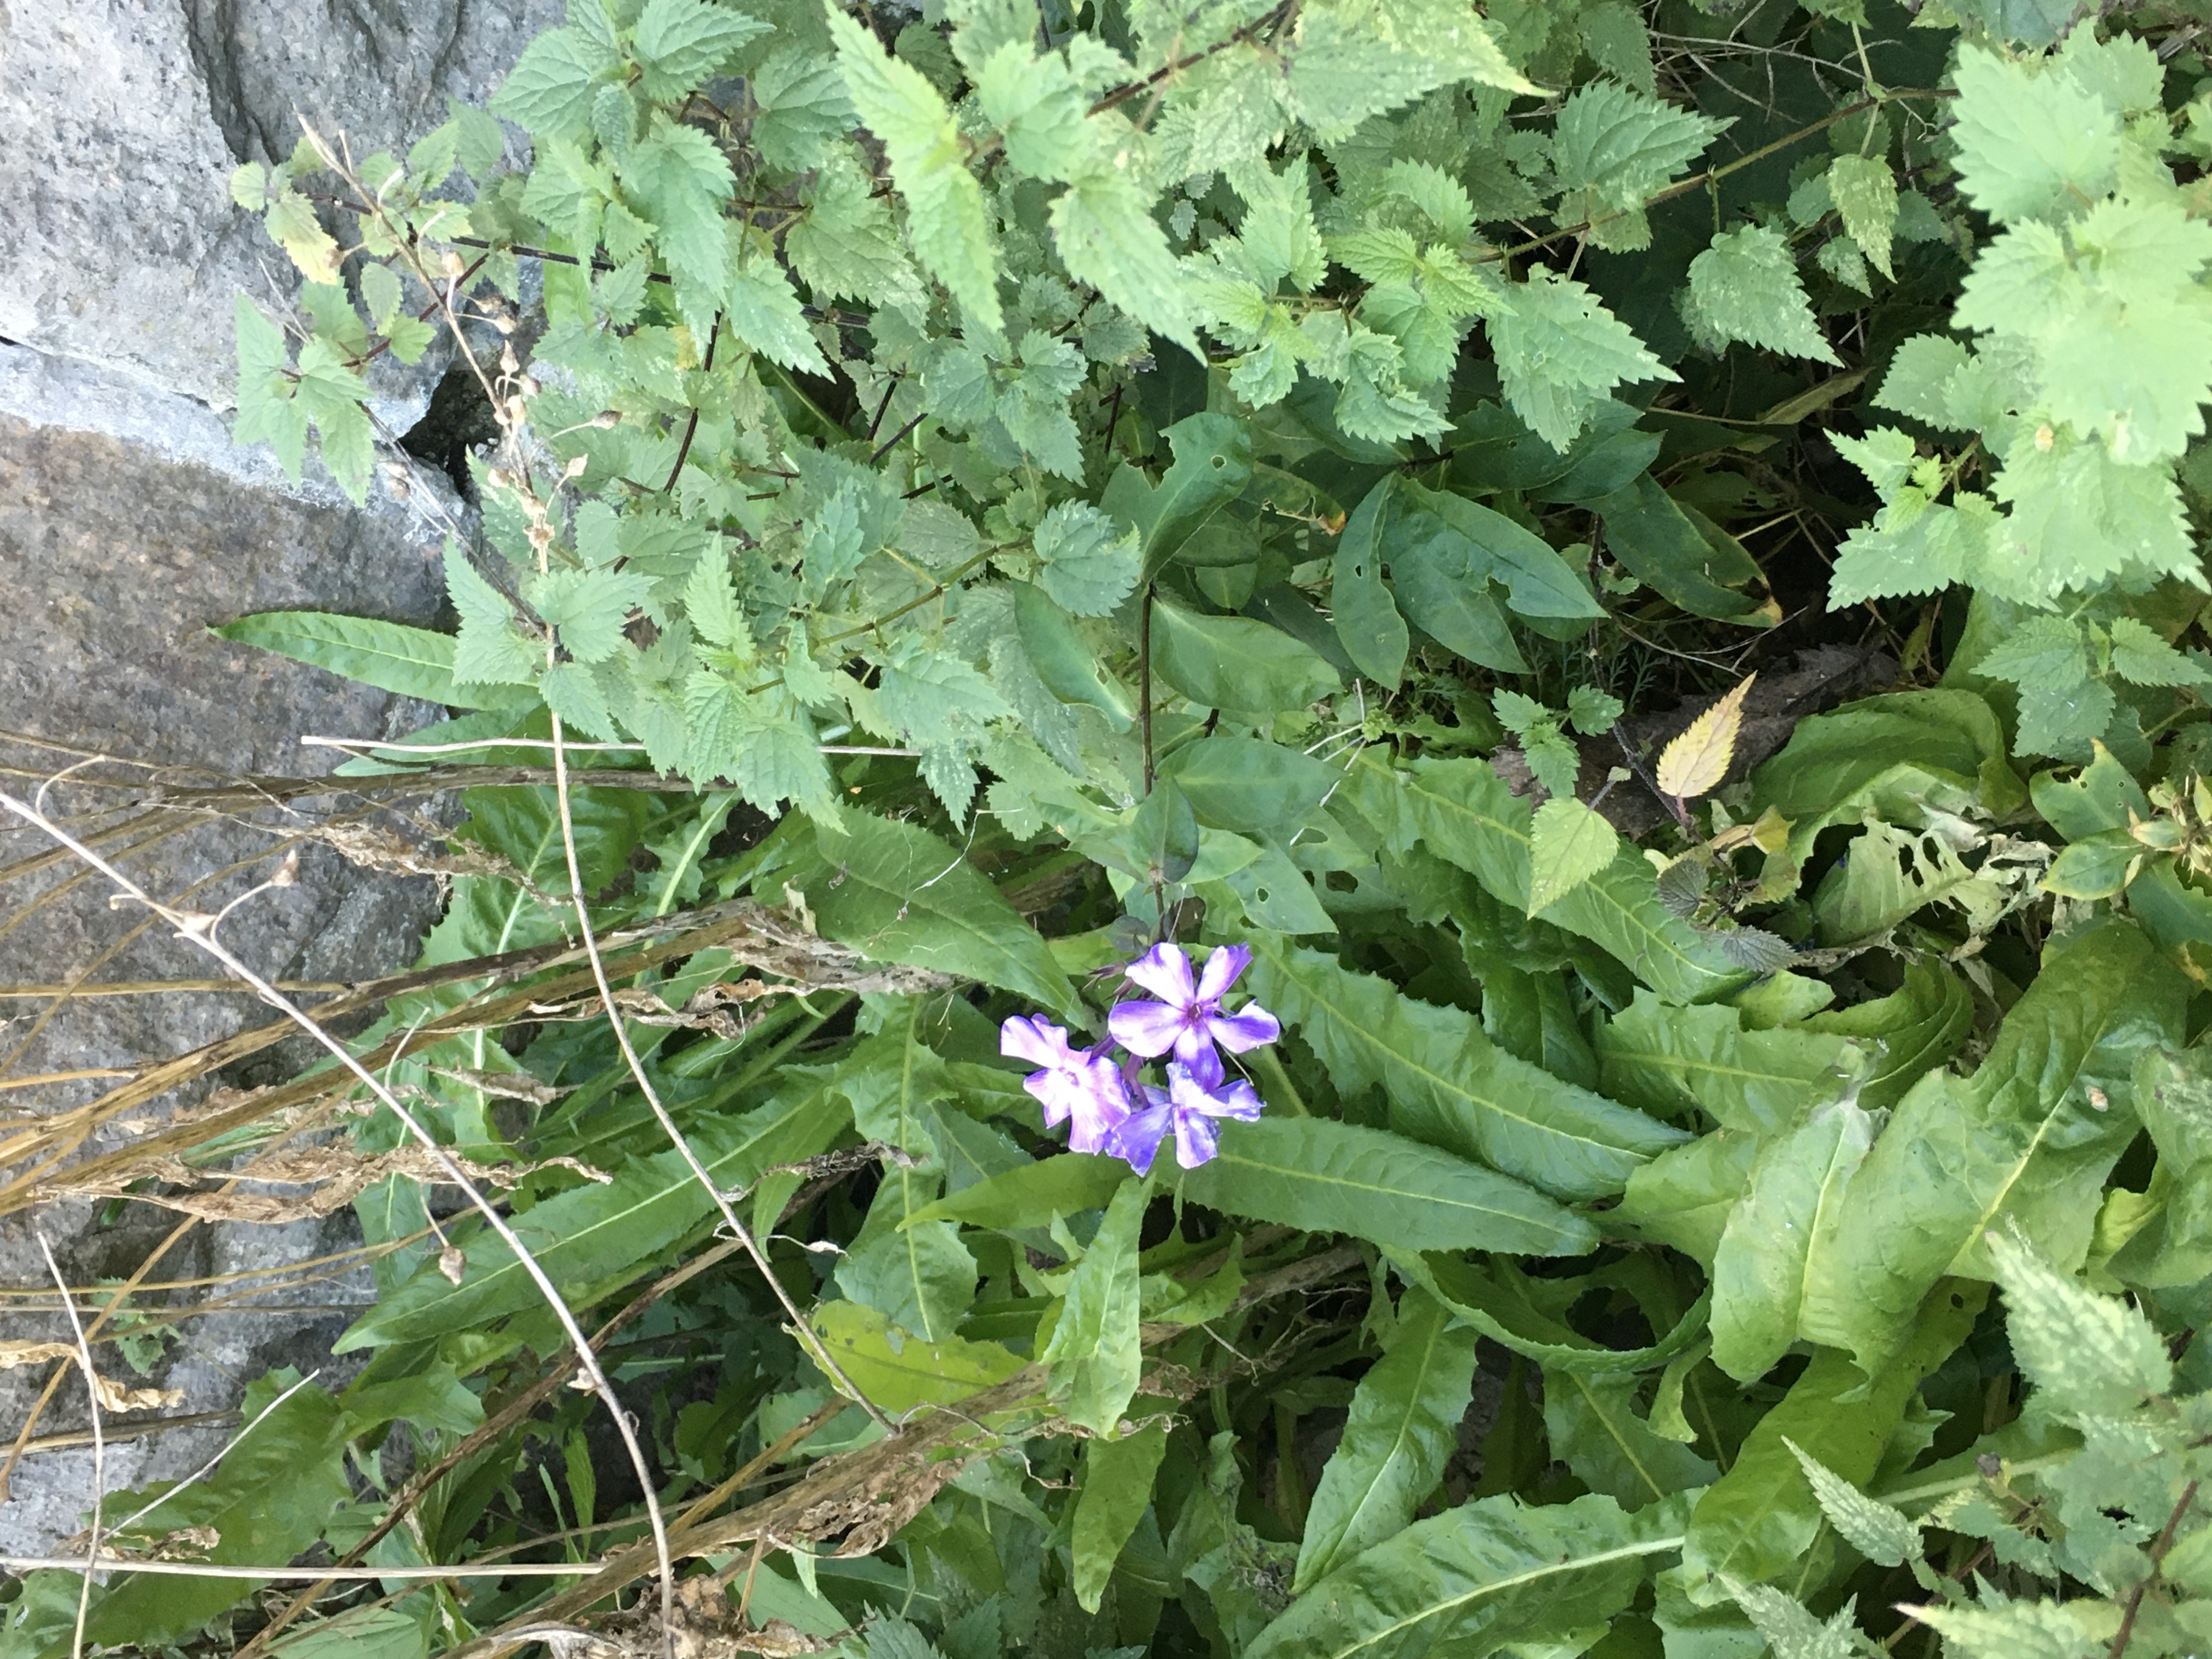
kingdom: Plantae
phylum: Tracheophyta
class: Magnoliopsida
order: Ericales
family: Polemoniaceae
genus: Phlox
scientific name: Phlox paniculata
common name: høstfloks
